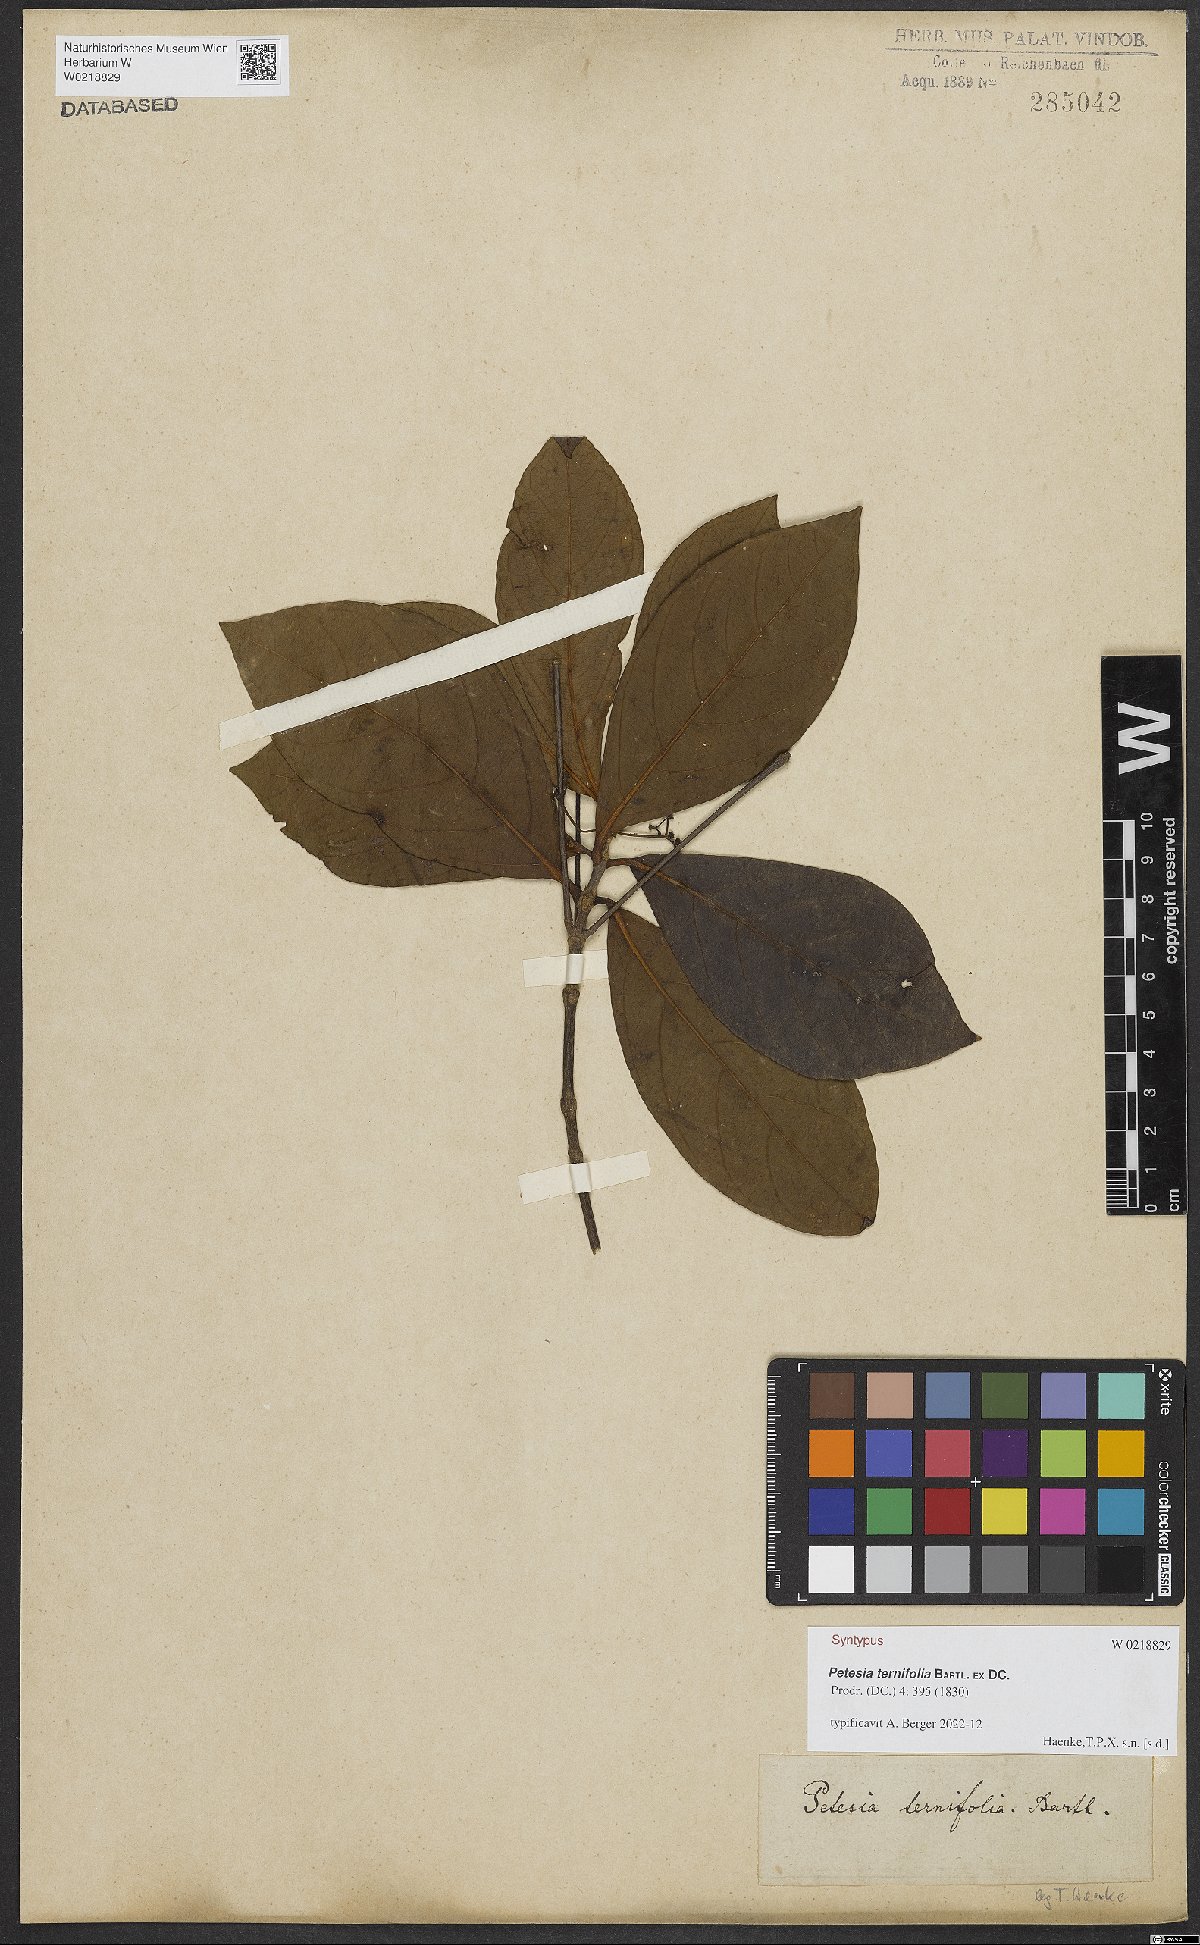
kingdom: Plantae
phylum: Tracheophyta
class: Magnoliopsida
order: Gentianales
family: Rubiaceae
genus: Timonius
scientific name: Timonius ternifolius
